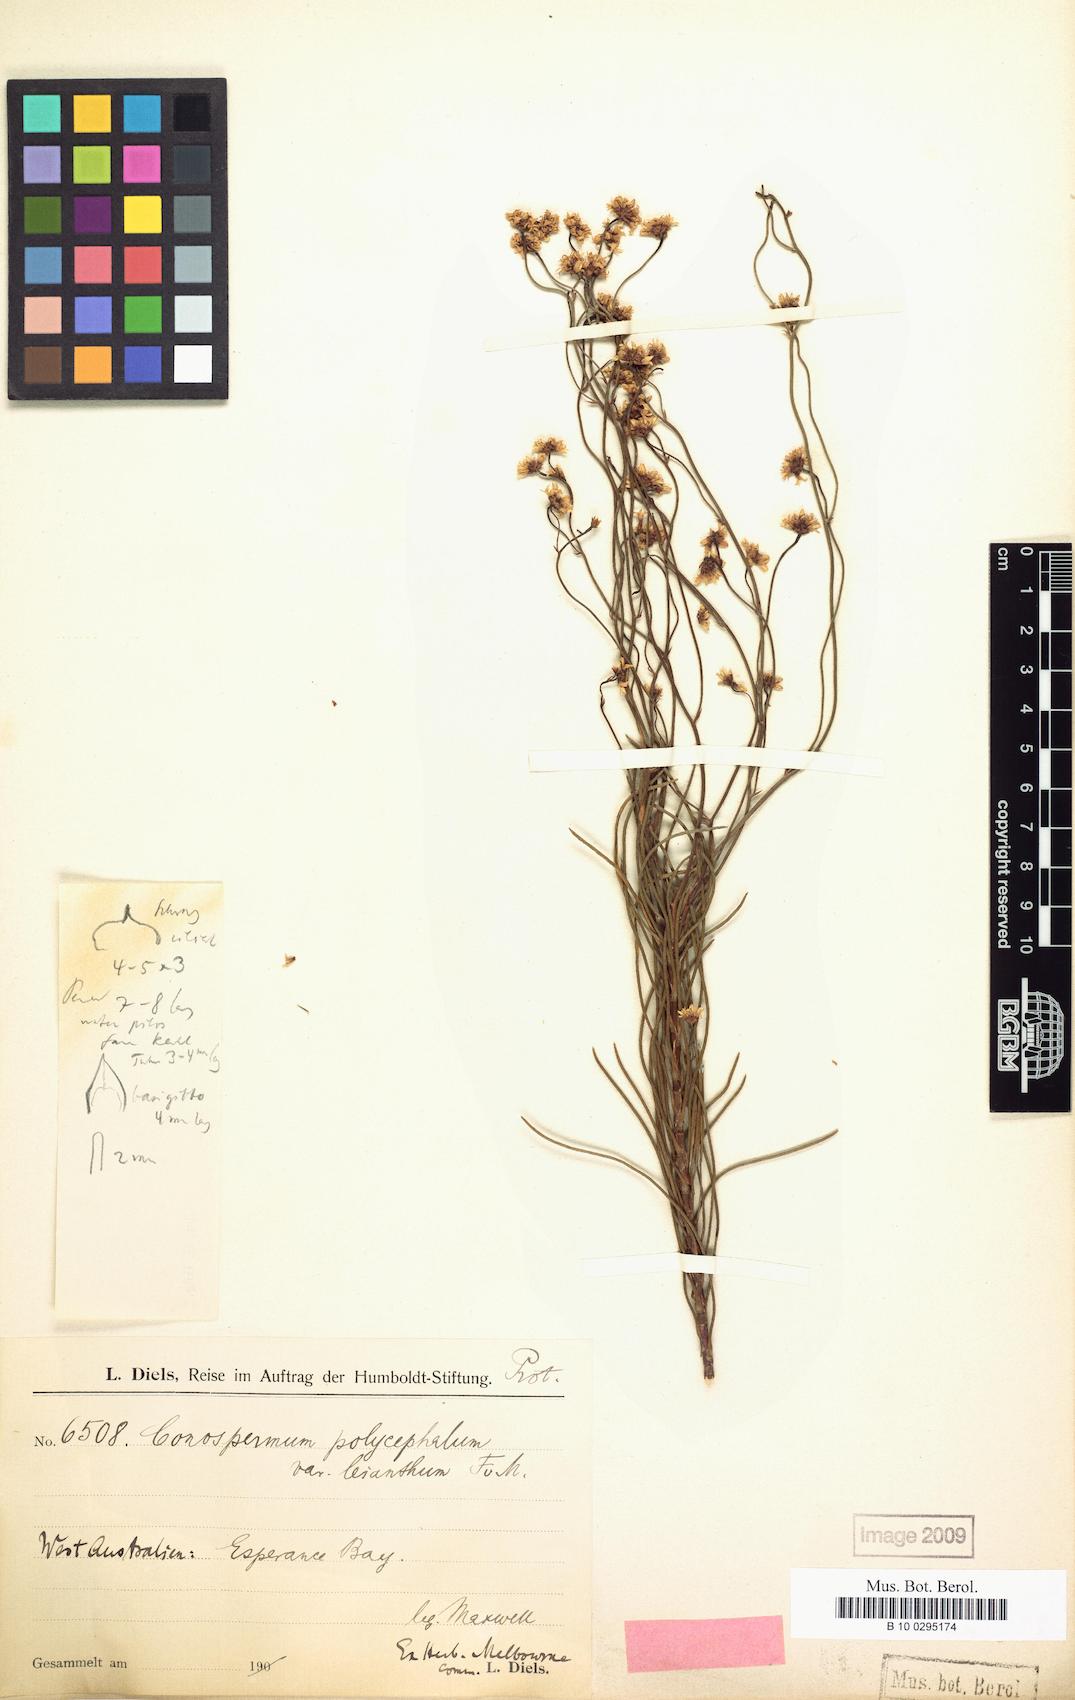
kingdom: Plantae
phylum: Tracheophyta
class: Magnoliopsida
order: Proteales
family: Proteaceae
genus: Conospermum
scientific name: Conospermum leianthum
